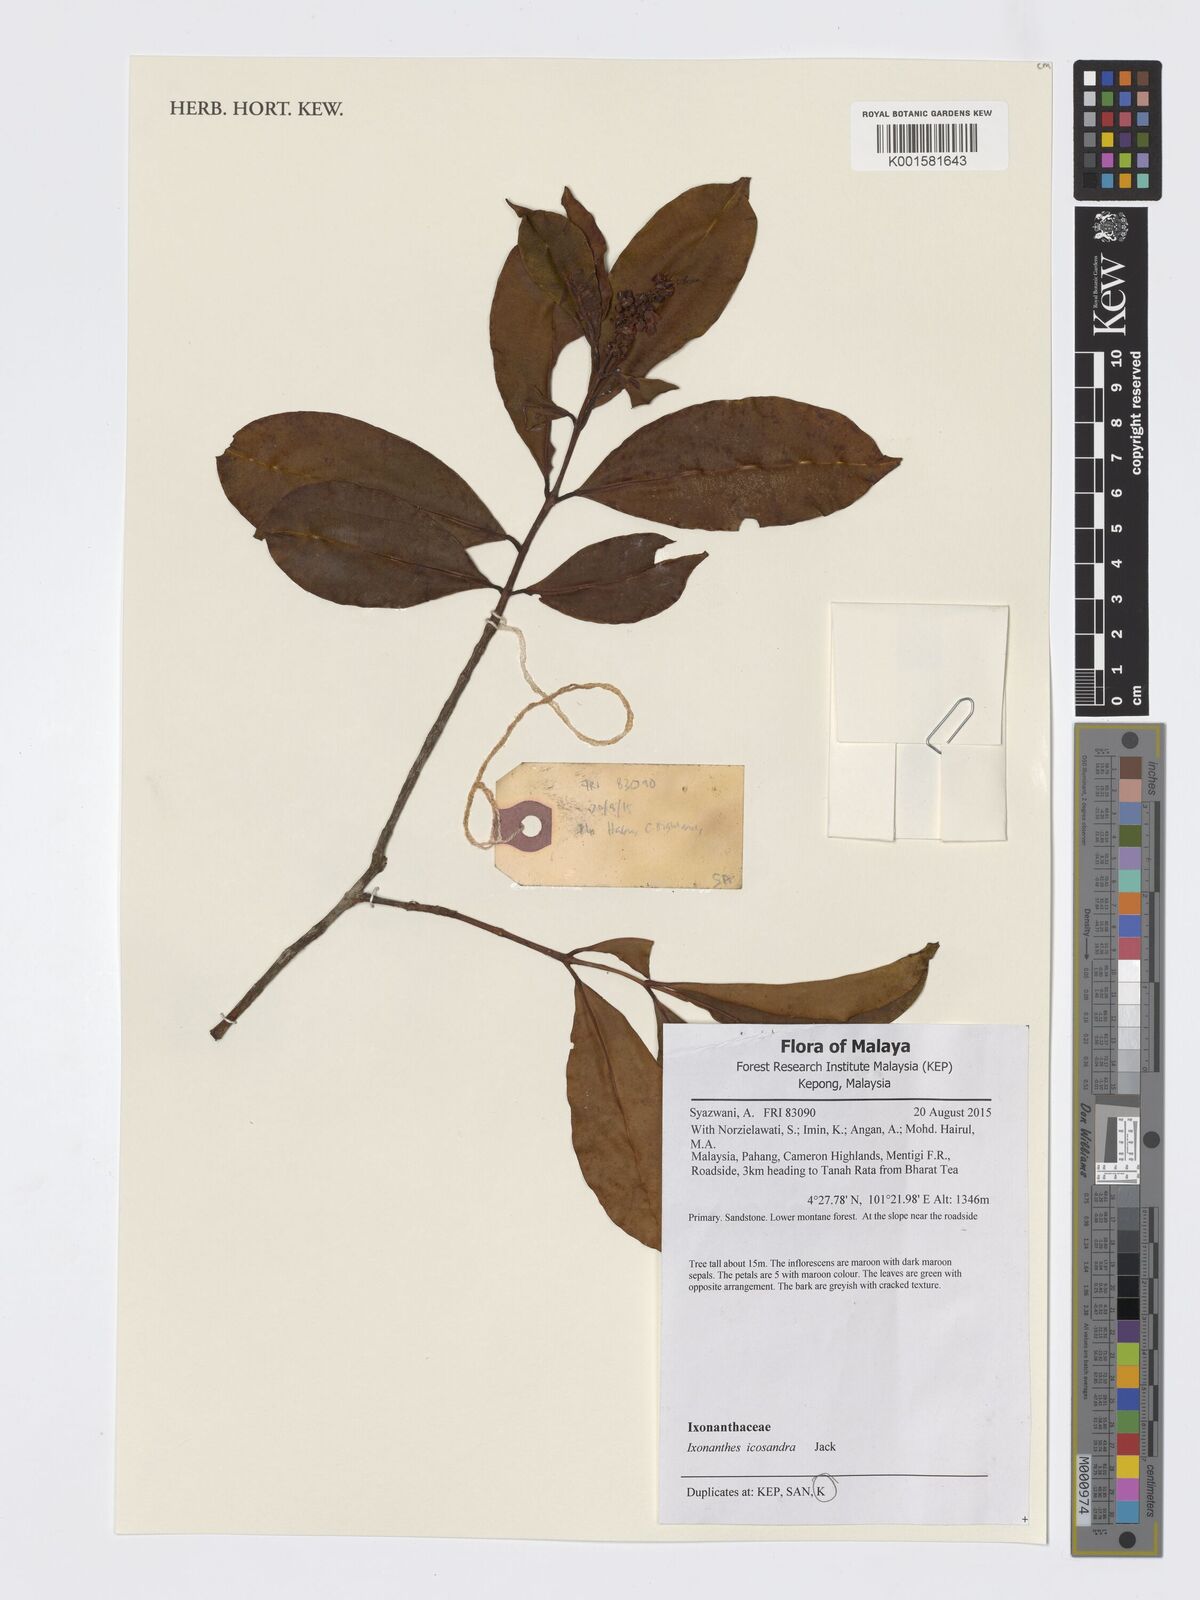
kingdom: Plantae
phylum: Tracheophyta
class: Magnoliopsida
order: Malpighiales
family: Ixonanthaceae
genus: Ixonanthes
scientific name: Ixonanthes icosandra
